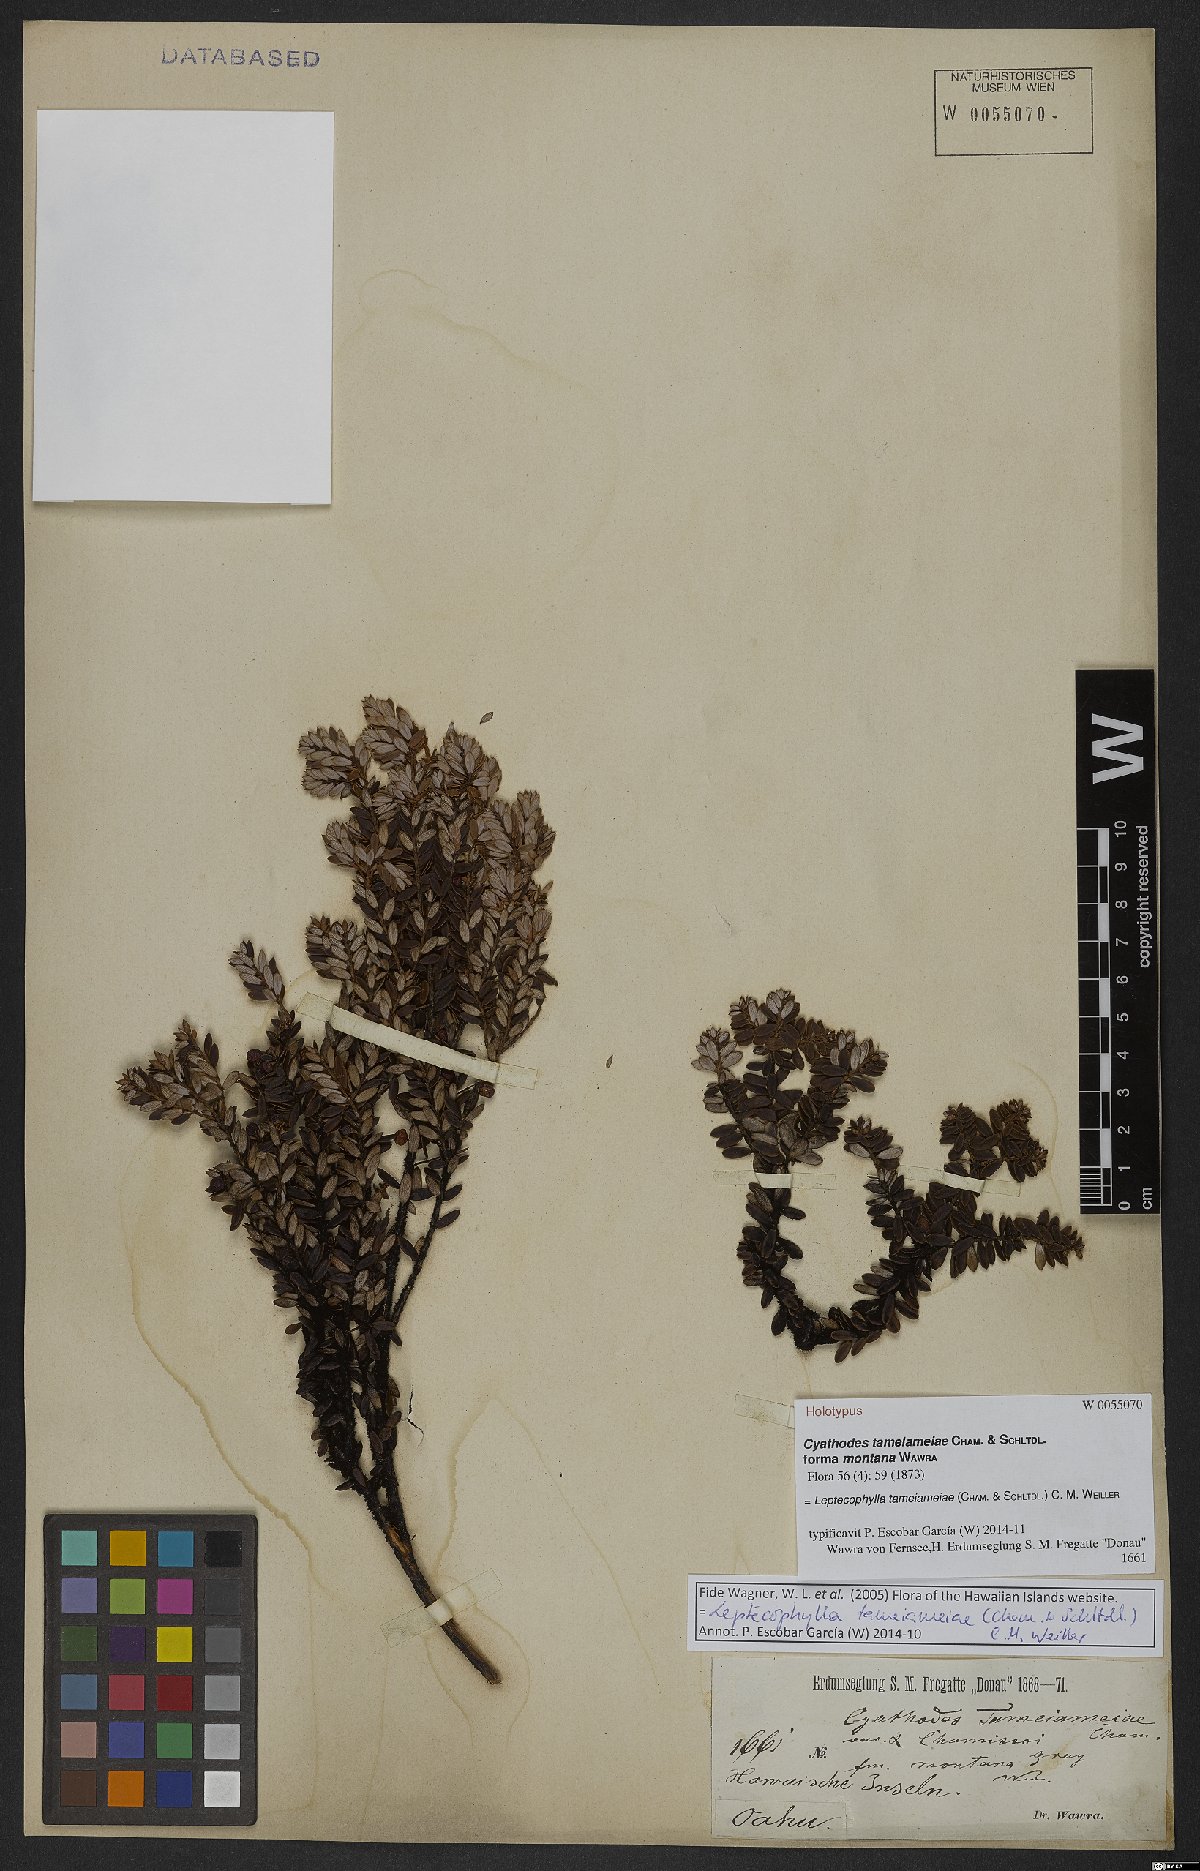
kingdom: Plantae
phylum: Tracheophyta
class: Magnoliopsida
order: Ericales
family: Ericaceae
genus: Leptecophylla
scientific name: Leptecophylla tameiameiae
